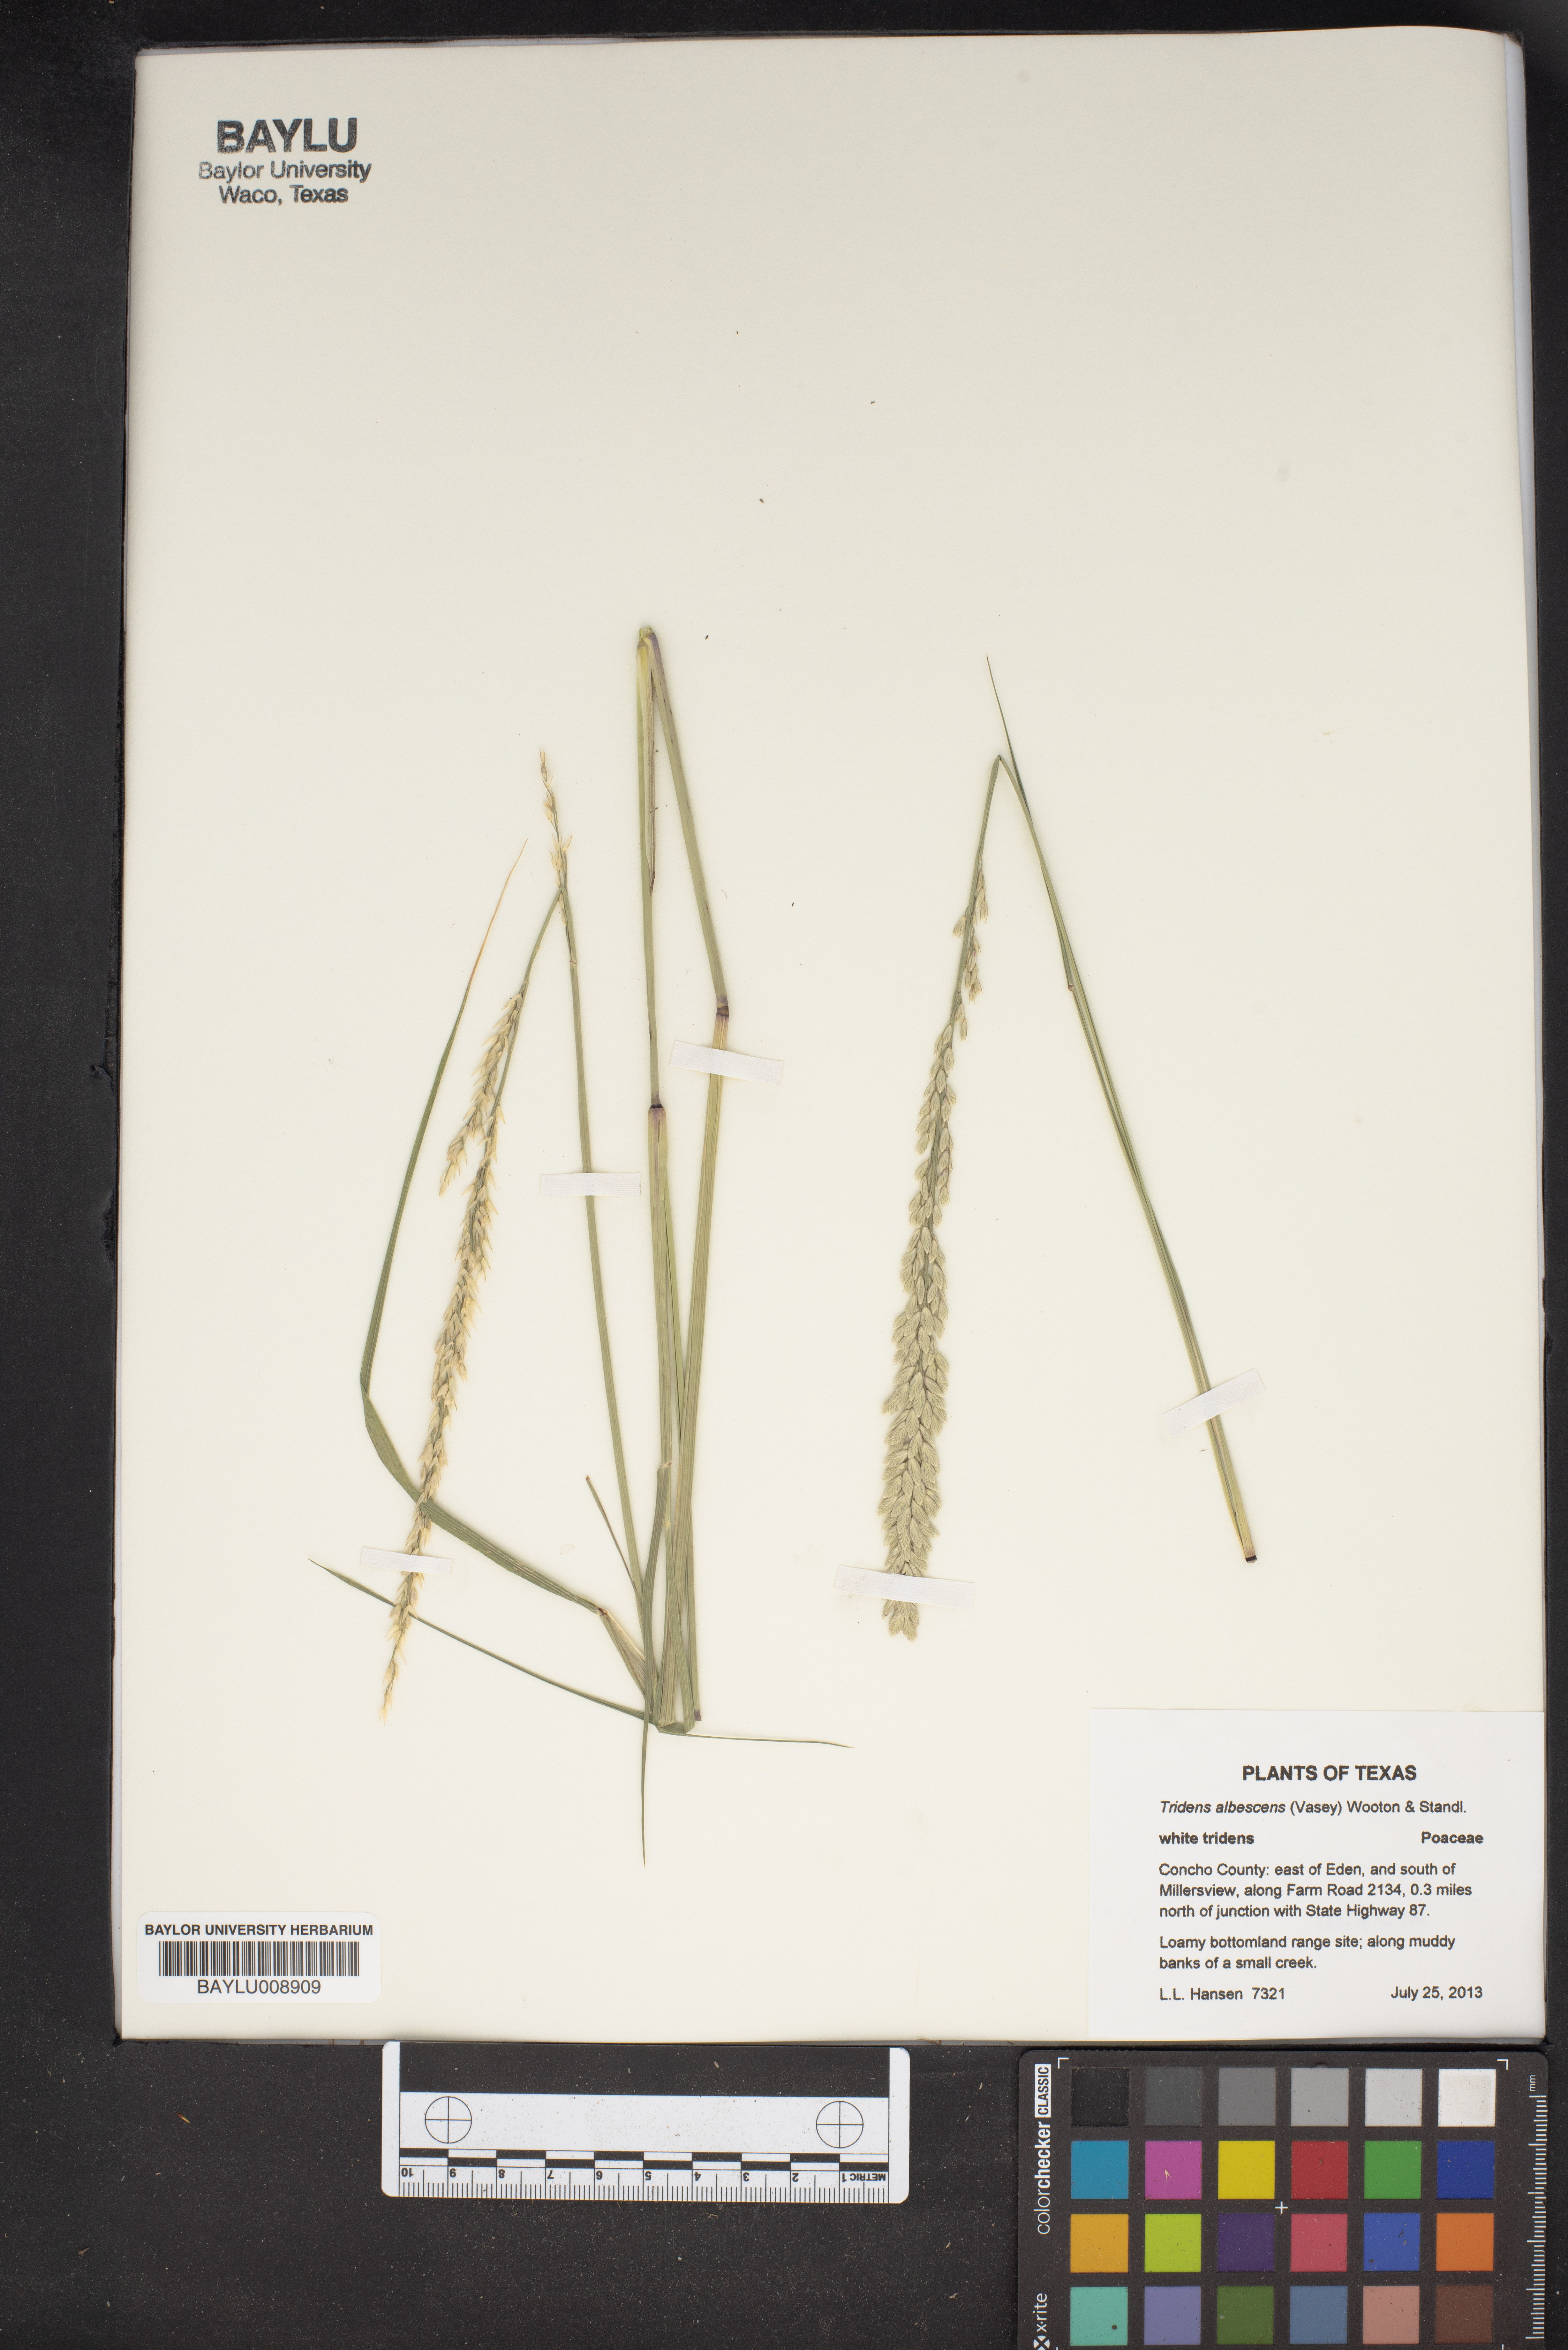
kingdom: Plantae
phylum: Tracheophyta
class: Liliopsida
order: Poales
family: Poaceae
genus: Tridens
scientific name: Tridens albescens
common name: White tridens
